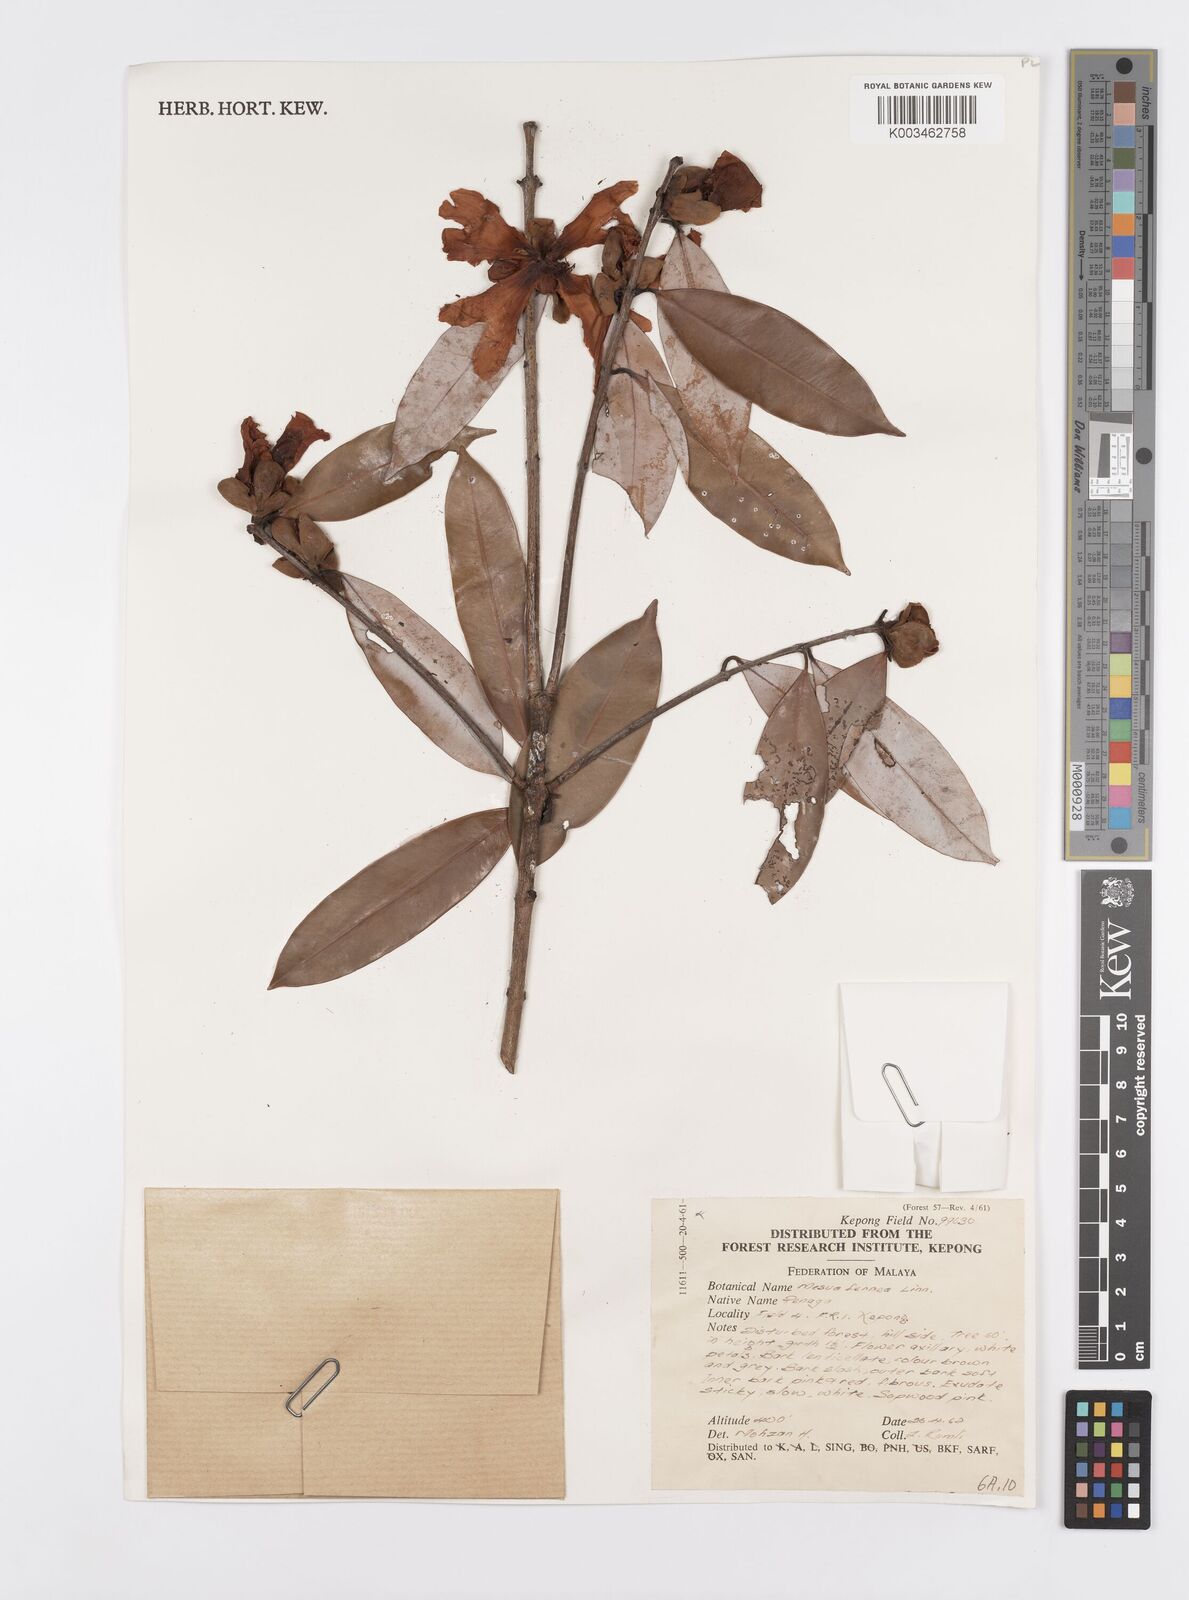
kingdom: Plantae
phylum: Tracheophyta
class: Magnoliopsida
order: Malpighiales
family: Calophyllaceae
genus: Mesua
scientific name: Mesua ferrea
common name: Mesua
